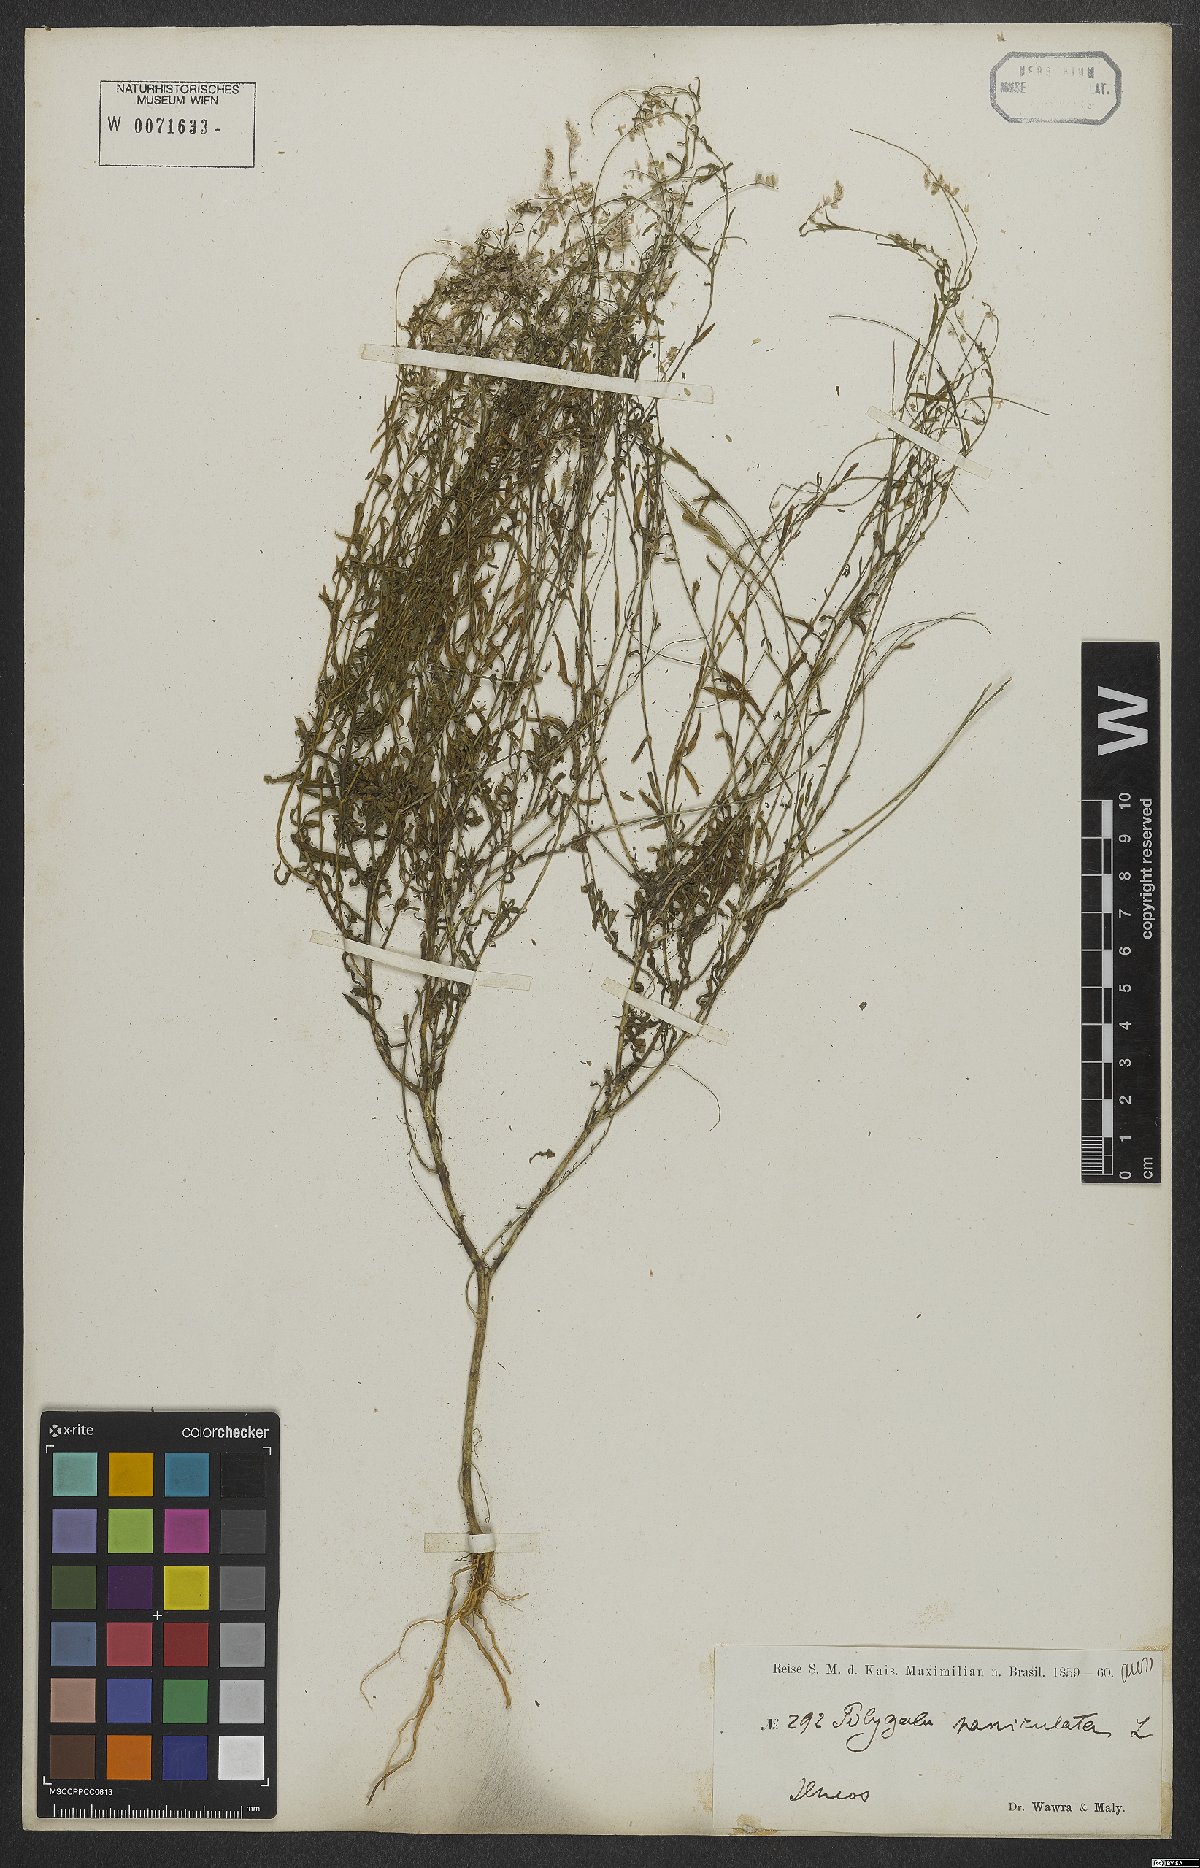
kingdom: Plantae
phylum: Tracheophyta
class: Magnoliopsida
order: Fabales
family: Polygalaceae
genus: Polygala
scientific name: Polygala exilis
